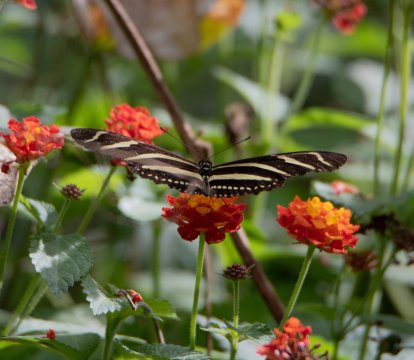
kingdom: Animalia
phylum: Arthropoda
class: Insecta
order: Lepidoptera
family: Nymphalidae
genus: Heliconius
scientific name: Heliconius charithonia
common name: Zebra Longwing
